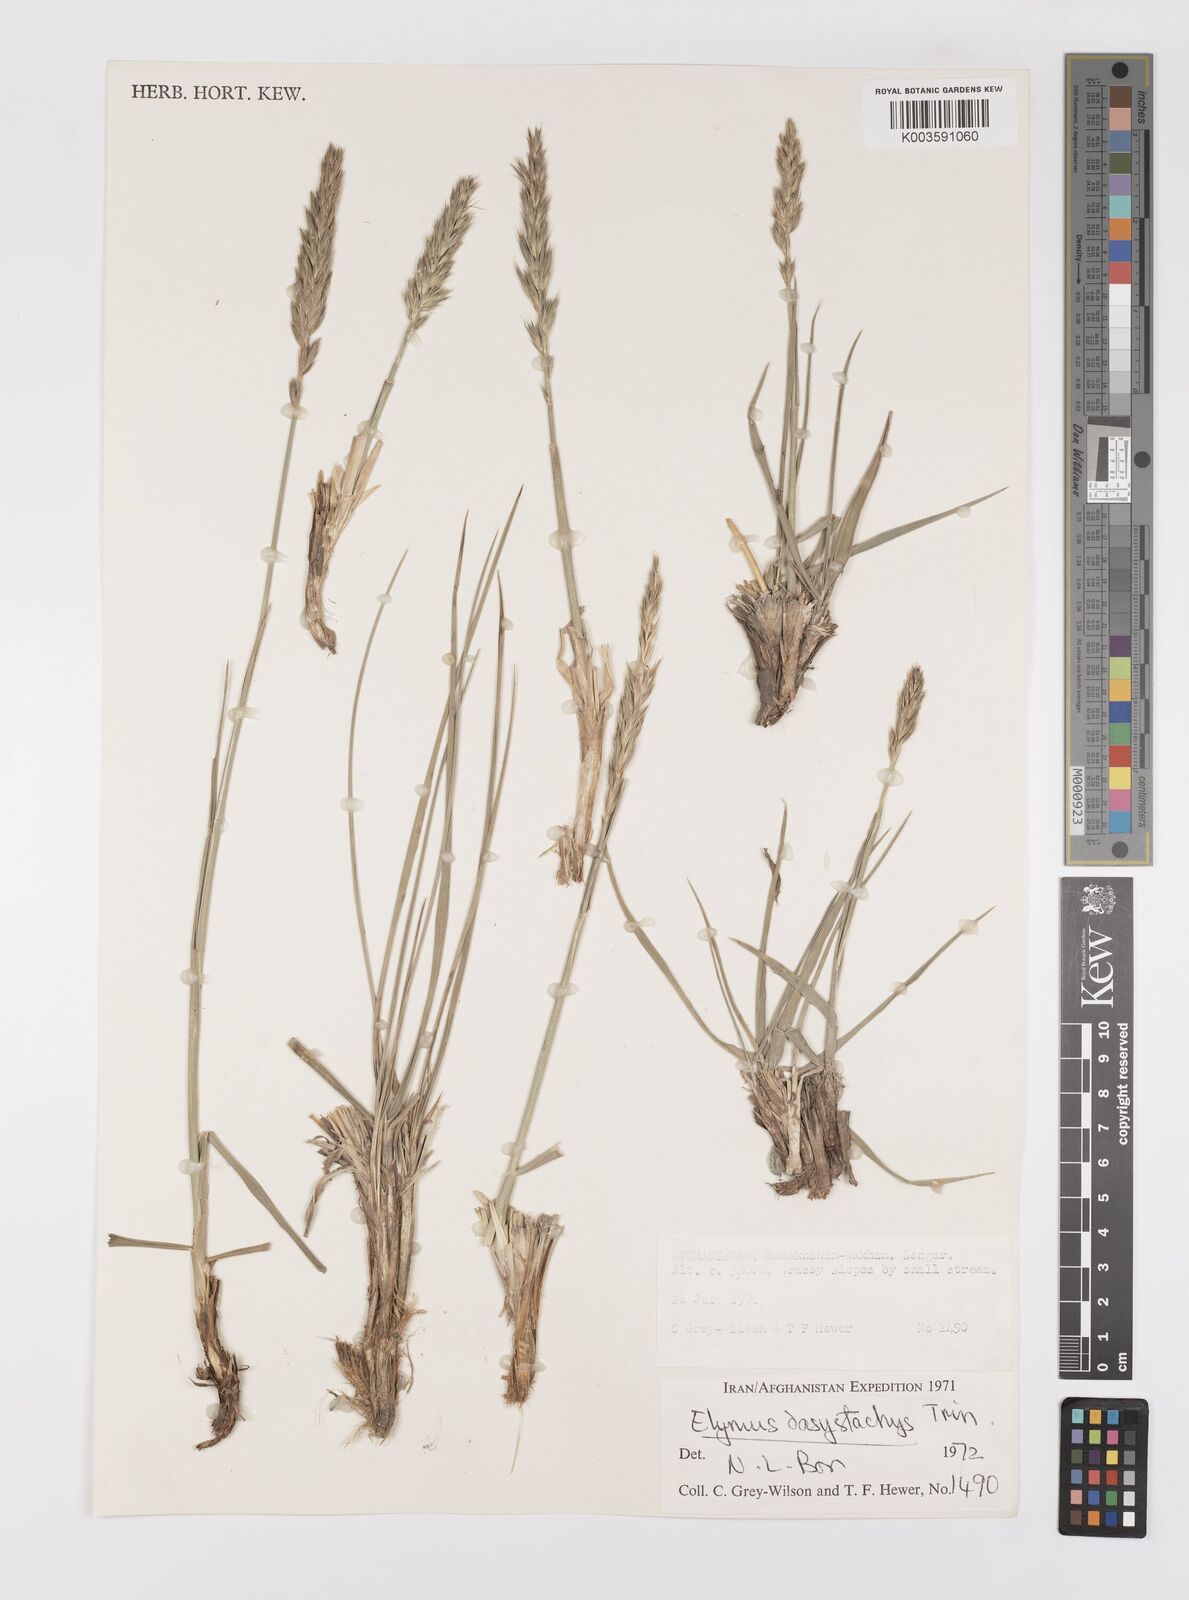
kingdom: Plantae
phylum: Tracheophyta
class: Liliopsida
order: Poales
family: Poaceae
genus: Leymus
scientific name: Leymus secalinus
